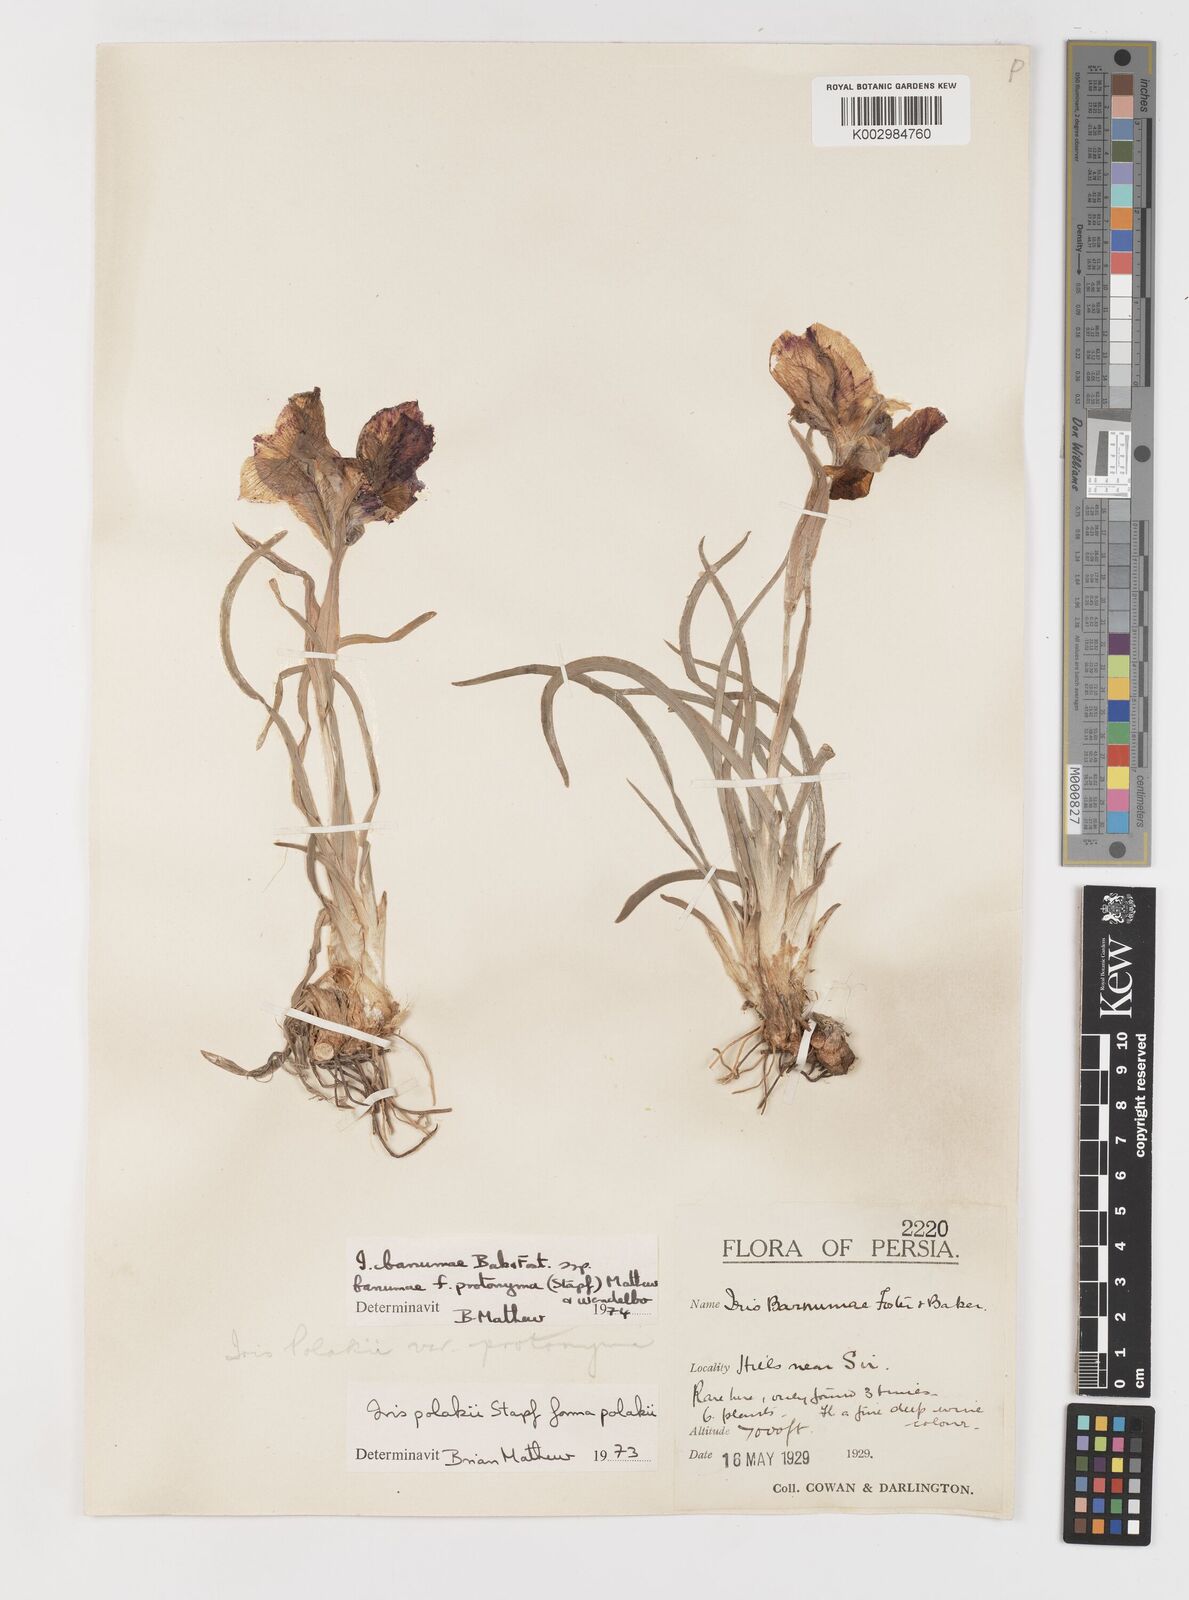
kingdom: Plantae
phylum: Tracheophyta
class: Liliopsida
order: Asparagales
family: Iridaceae
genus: Iris
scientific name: Iris polakii
